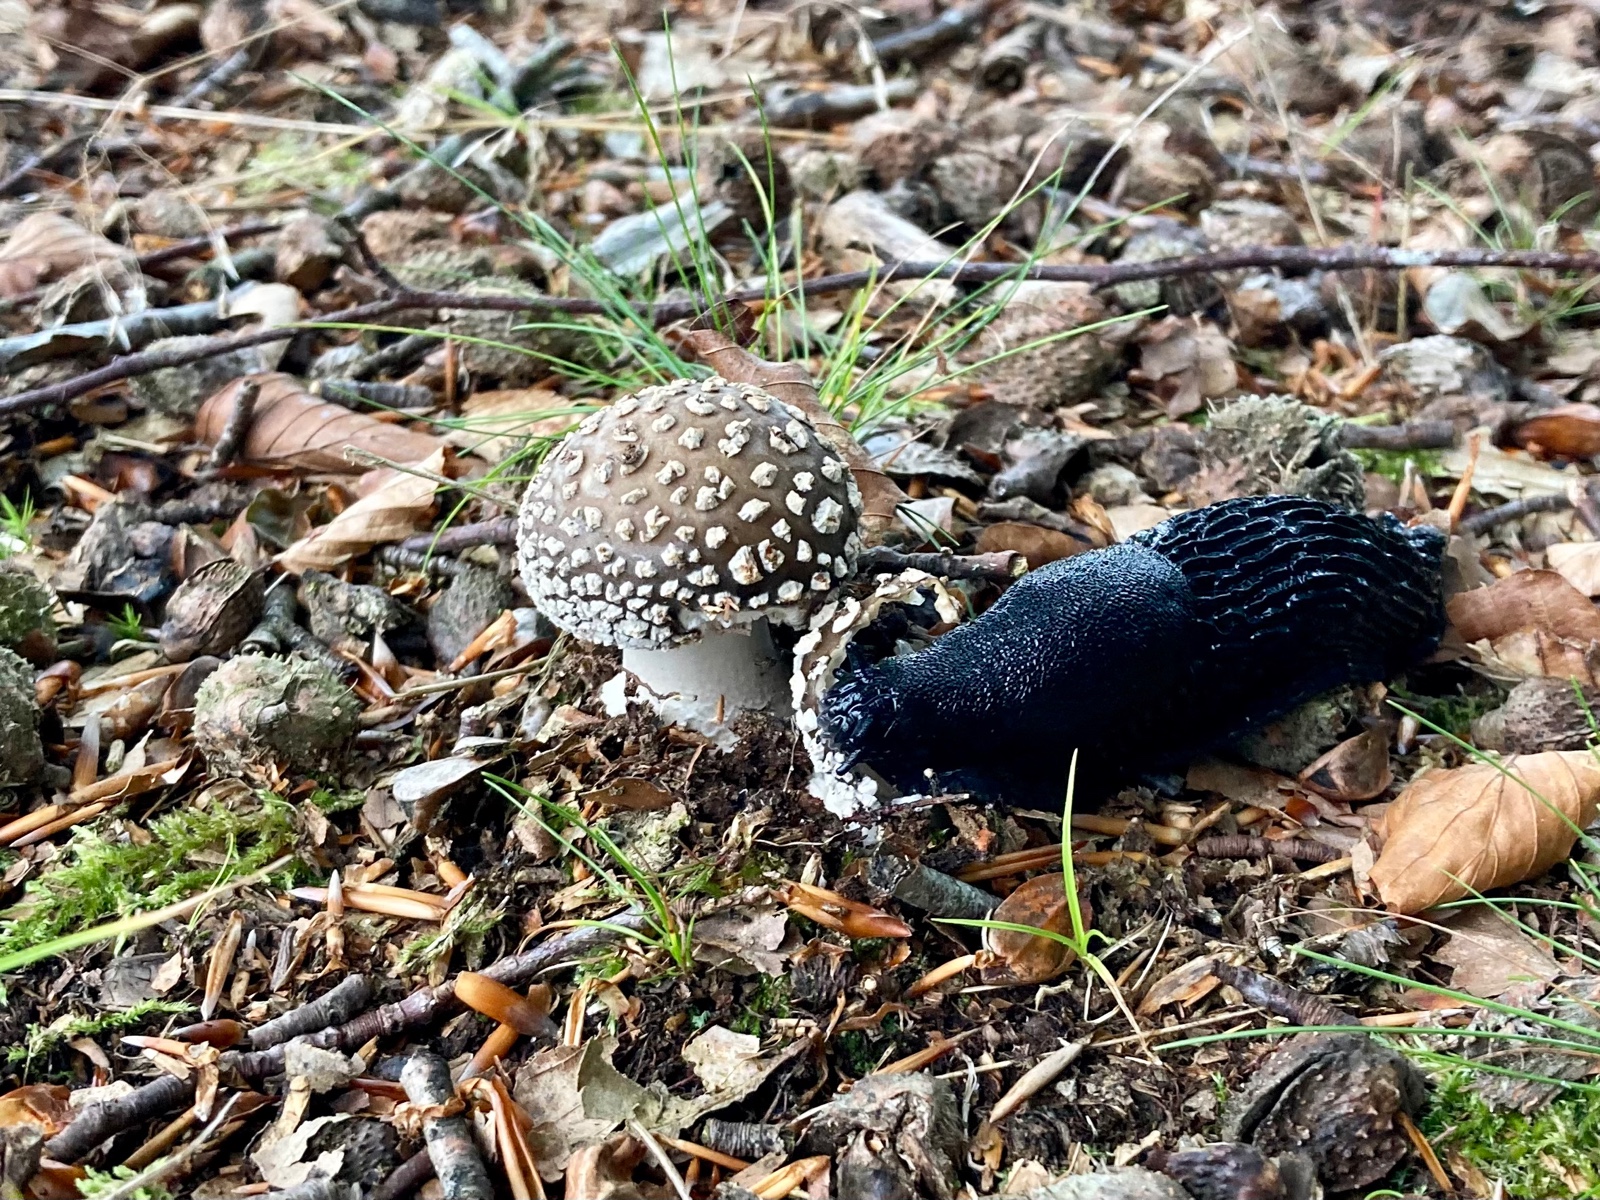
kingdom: Fungi
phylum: Basidiomycota
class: Agaricomycetes
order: Agaricales
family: Amanitaceae
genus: Amanita
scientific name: Amanita pantherina
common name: panter-fluesvamp
